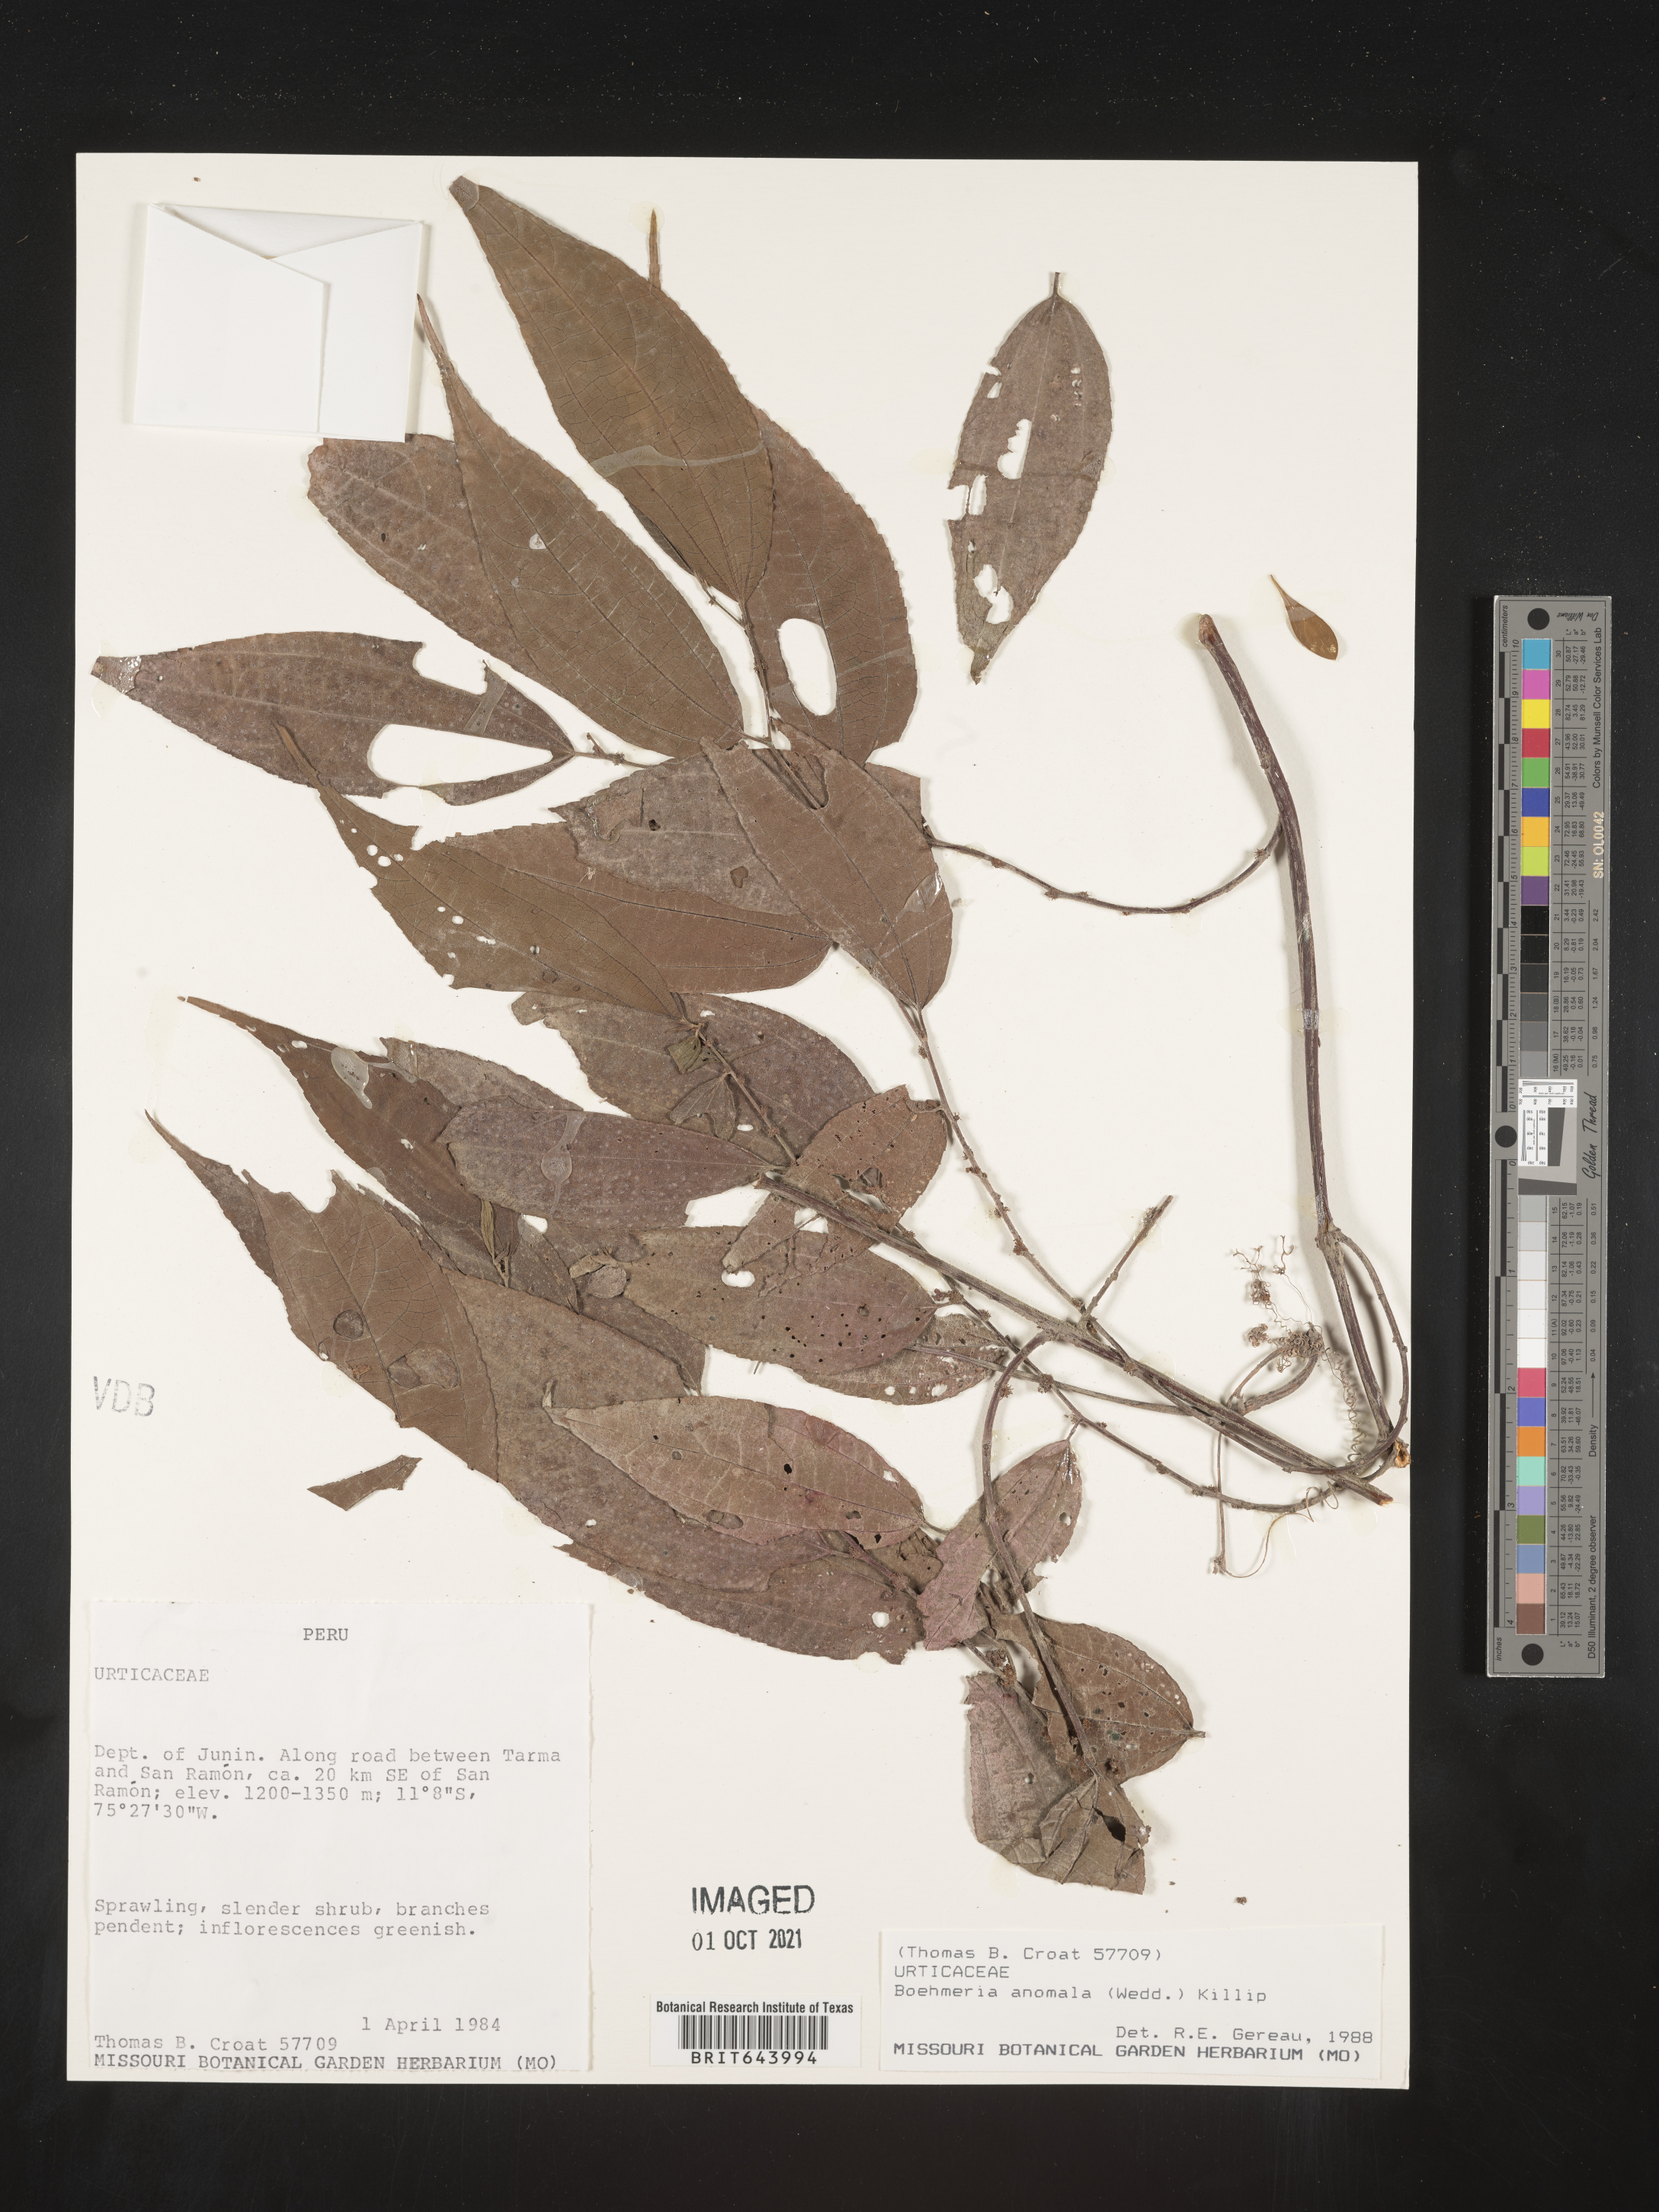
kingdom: Plantae
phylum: Tracheophyta
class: Magnoliopsida
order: Rosales
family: Urticaceae
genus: Boehmeria
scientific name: Boehmeria
